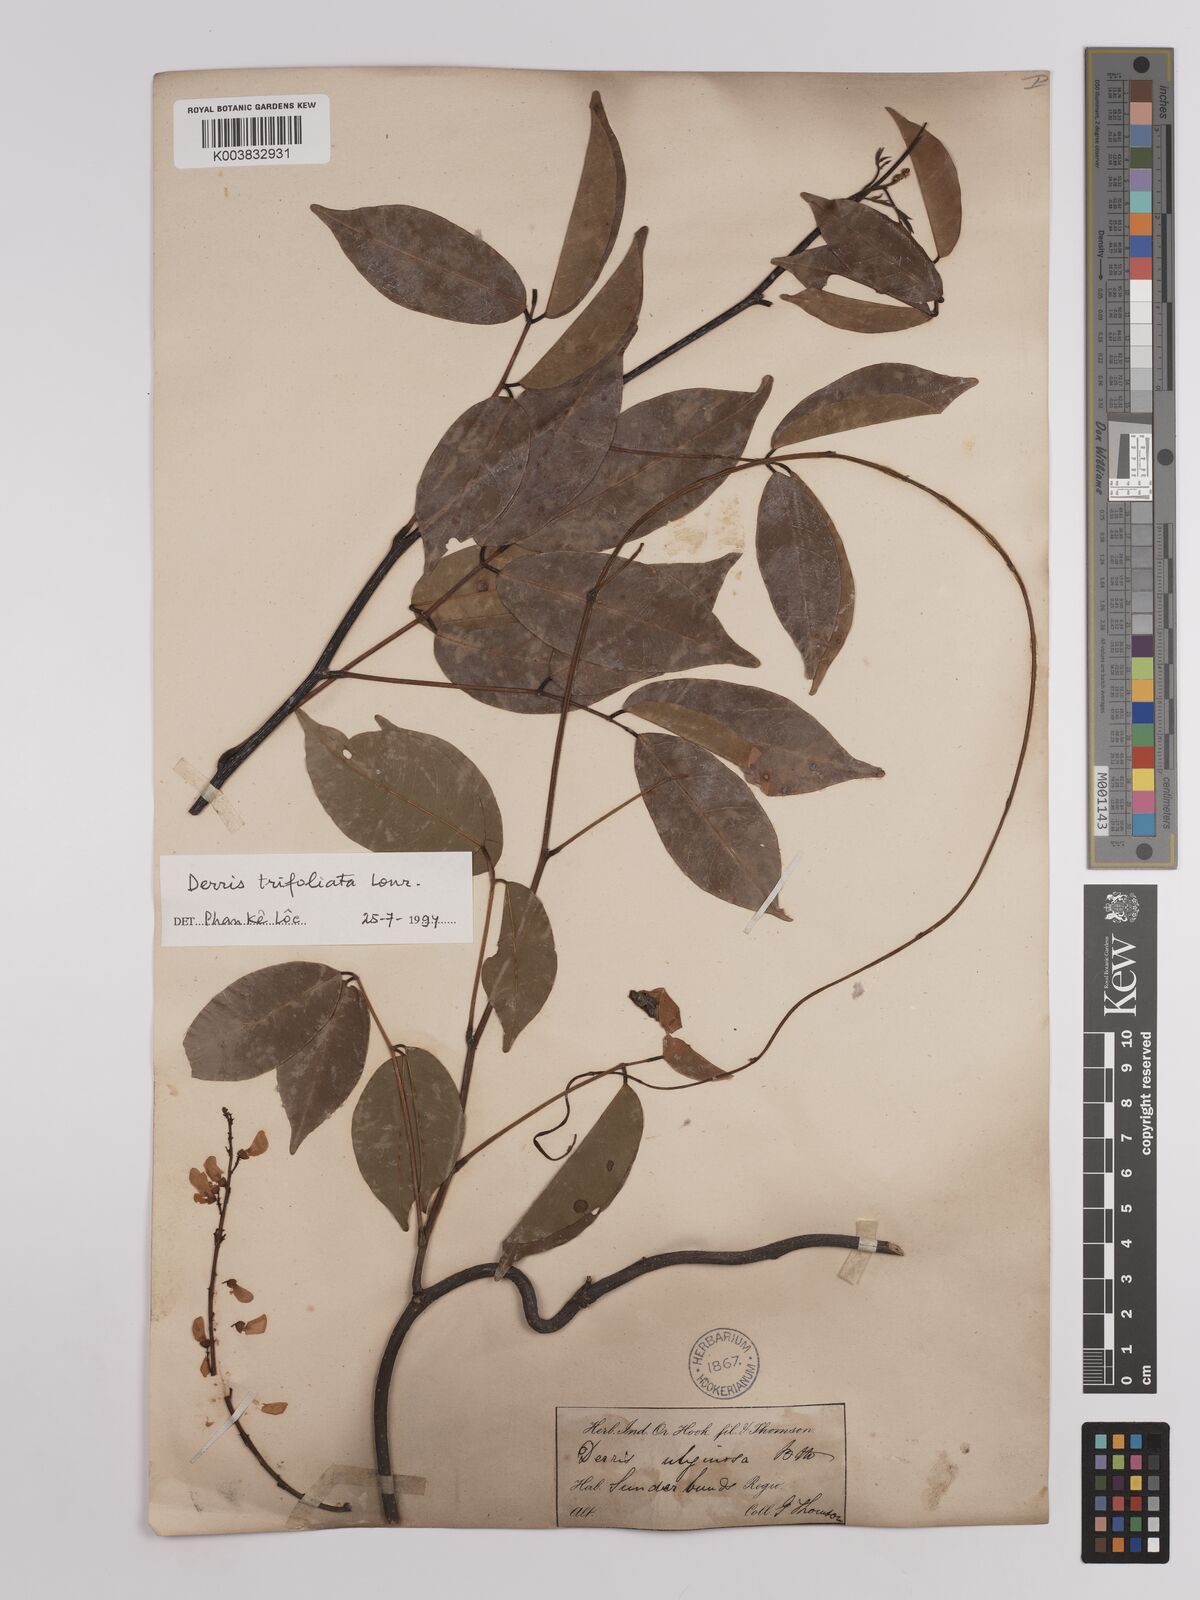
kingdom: Plantae
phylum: Tracheophyta
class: Magnoliopsida
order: Fabales
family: Fabaceae
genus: Derris
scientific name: Derris trifoliata
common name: Three-leaf derris
